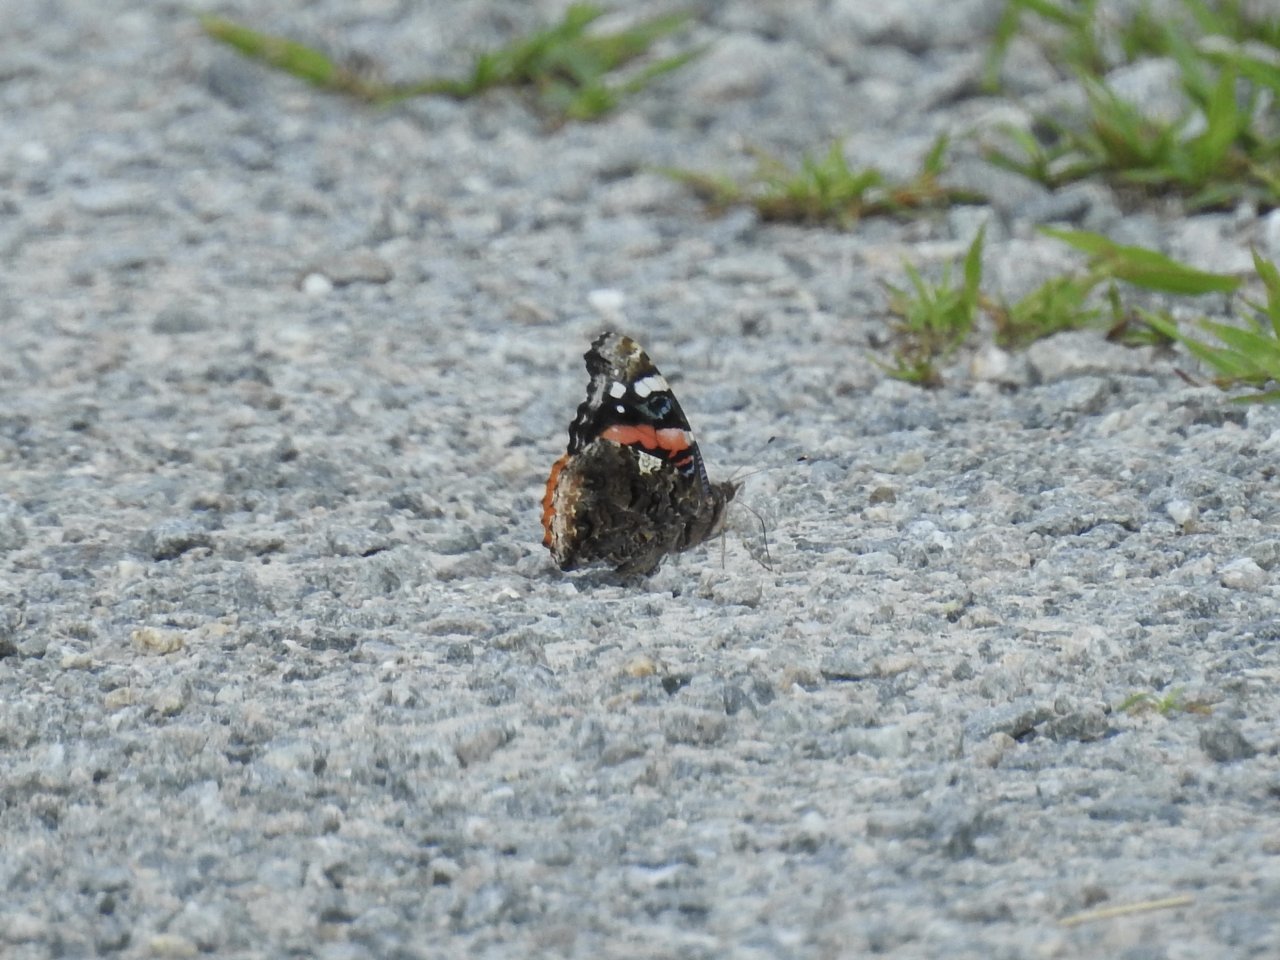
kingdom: Animalia
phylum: Arthropoda
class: Insecta
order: Lepidoptera
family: Nymphalidae
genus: Vanessa
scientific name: Vanessa atalanta
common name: Red Admiral
